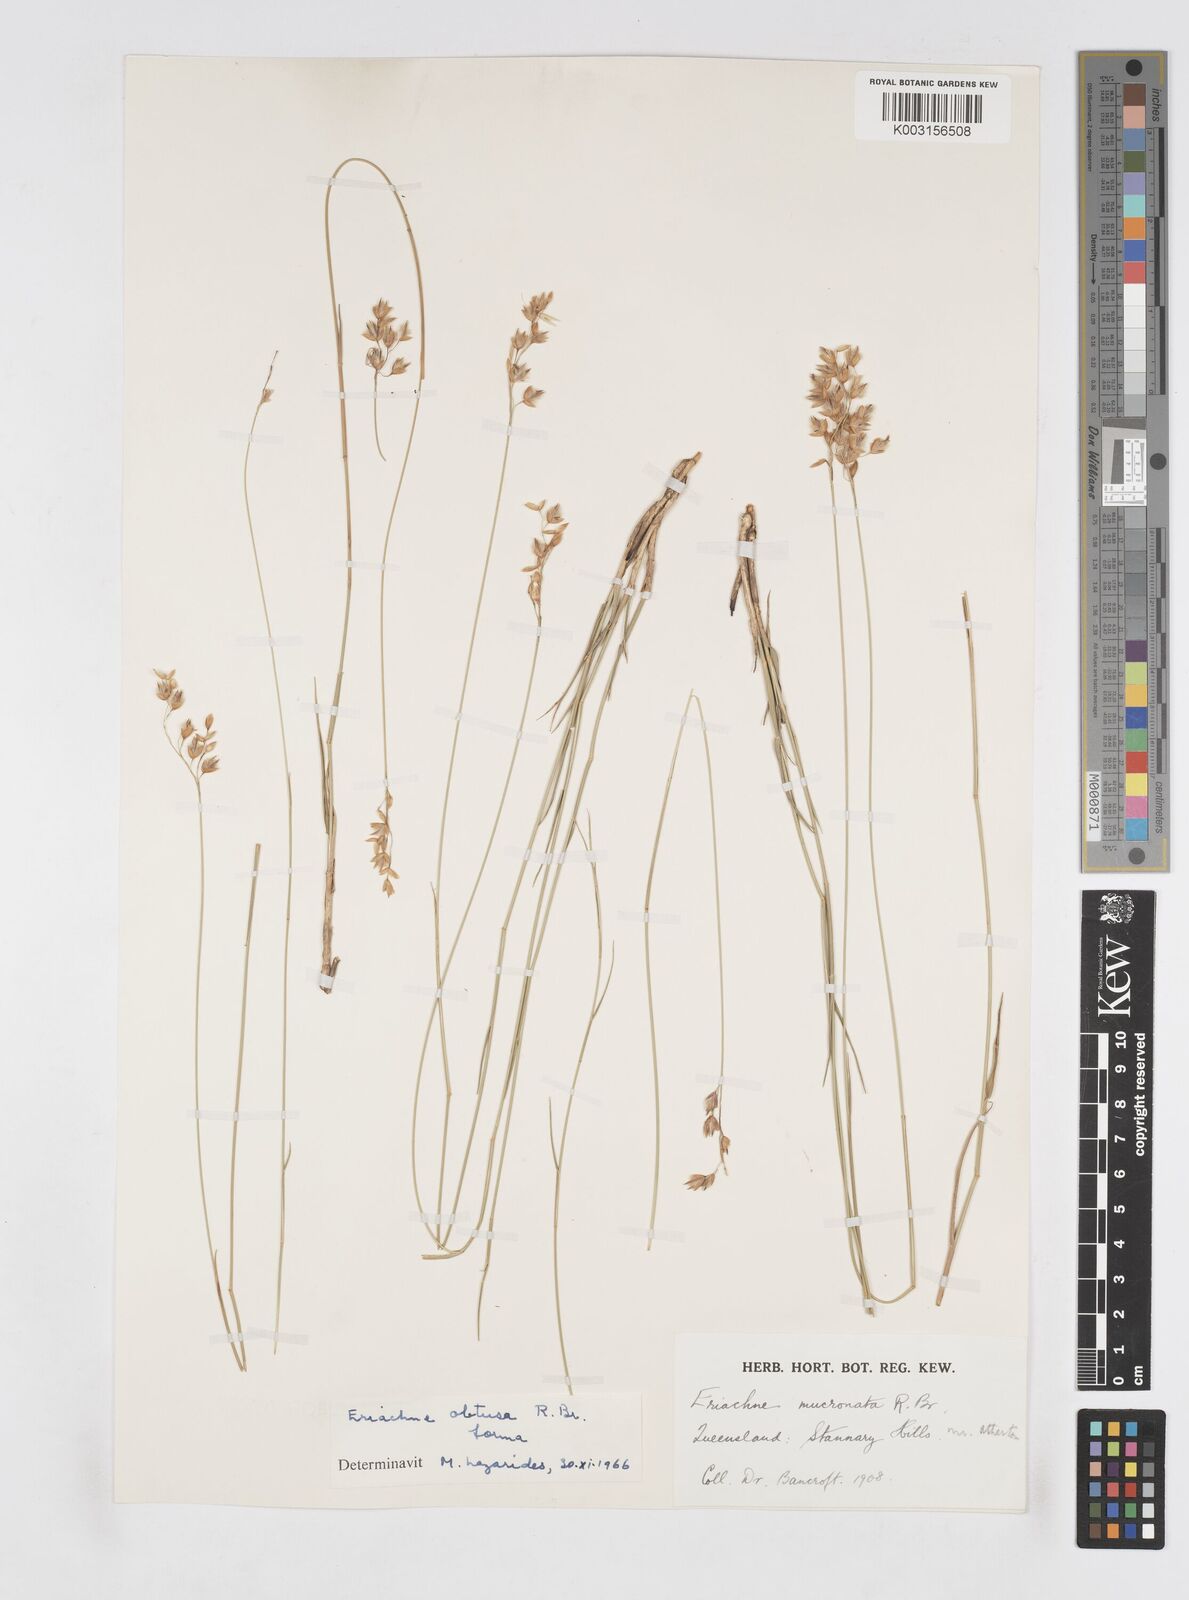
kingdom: Plantae
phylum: Tracheophyta
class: Liliopsida
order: Poales
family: Poaceae
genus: Eriachne
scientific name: Eriachne obtusa
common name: Northern wanderrie grass
